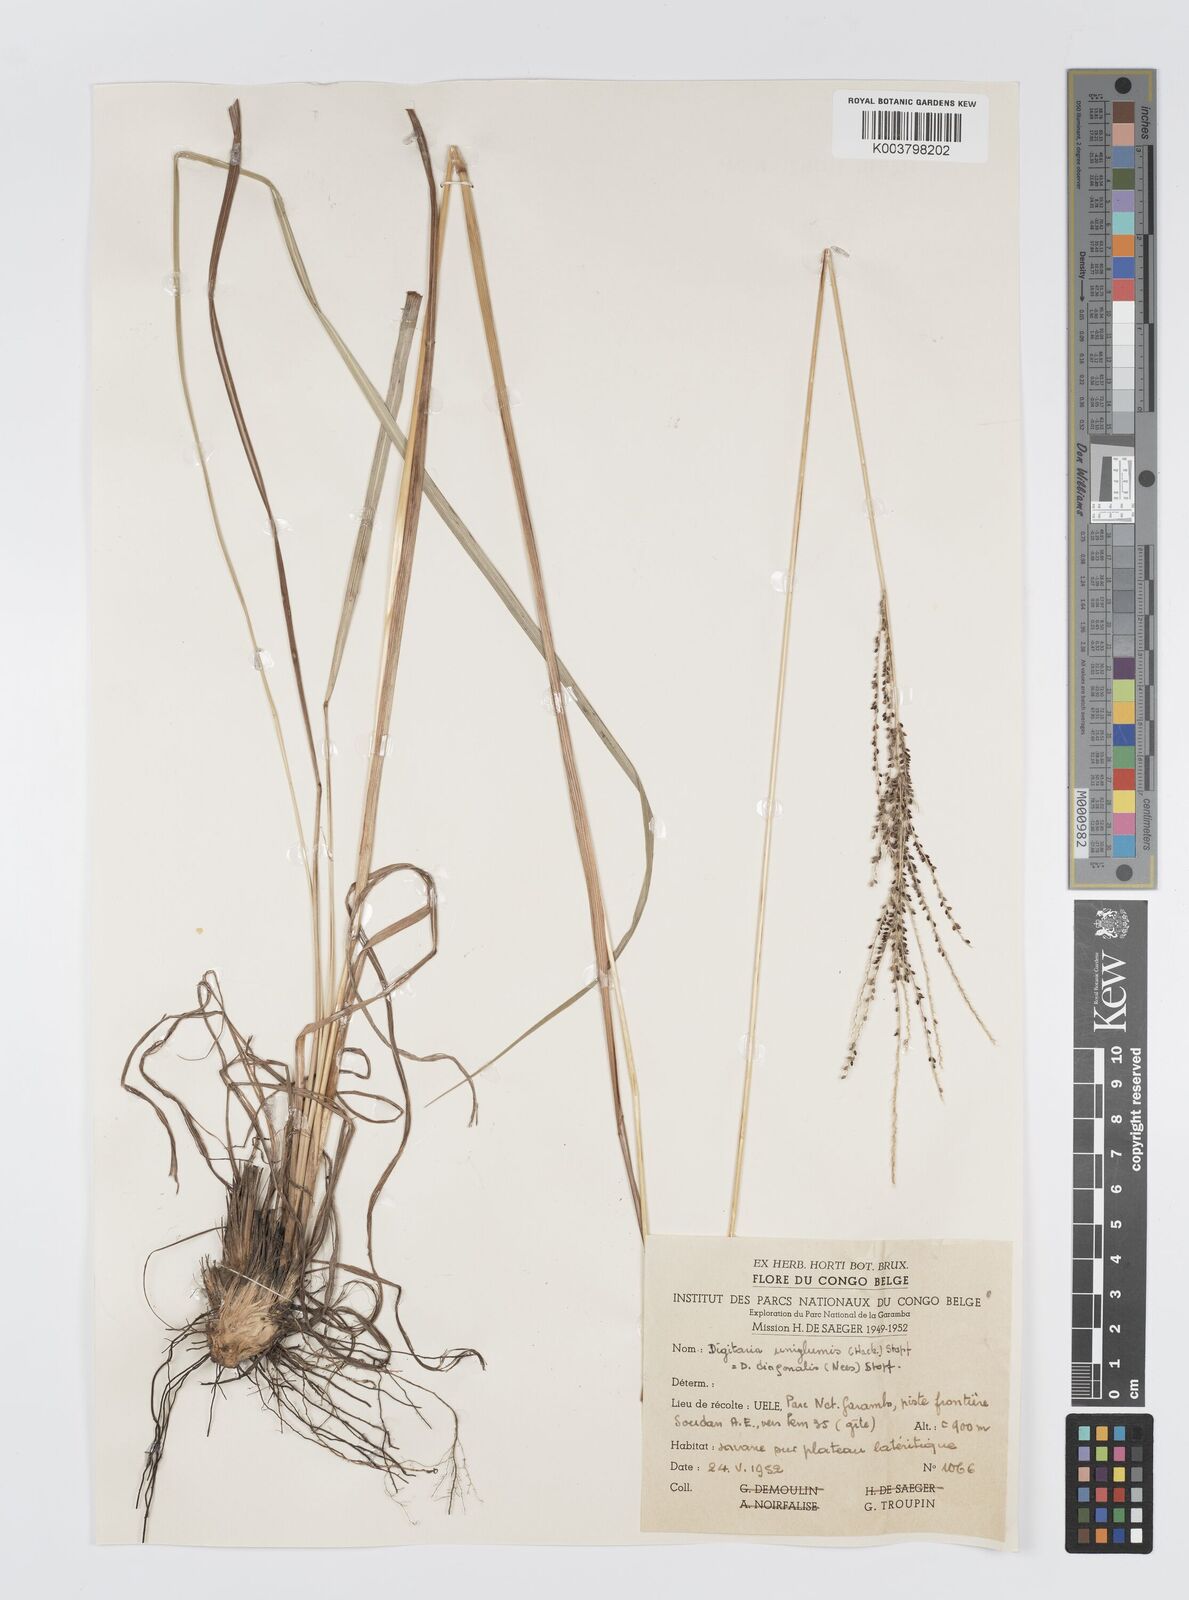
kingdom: Plantae
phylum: Tracheophyta
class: Liliopsida
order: Poales
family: Poaceae
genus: Digitaria
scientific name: Digitaria diagonalis
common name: Brown-seed finger grass
